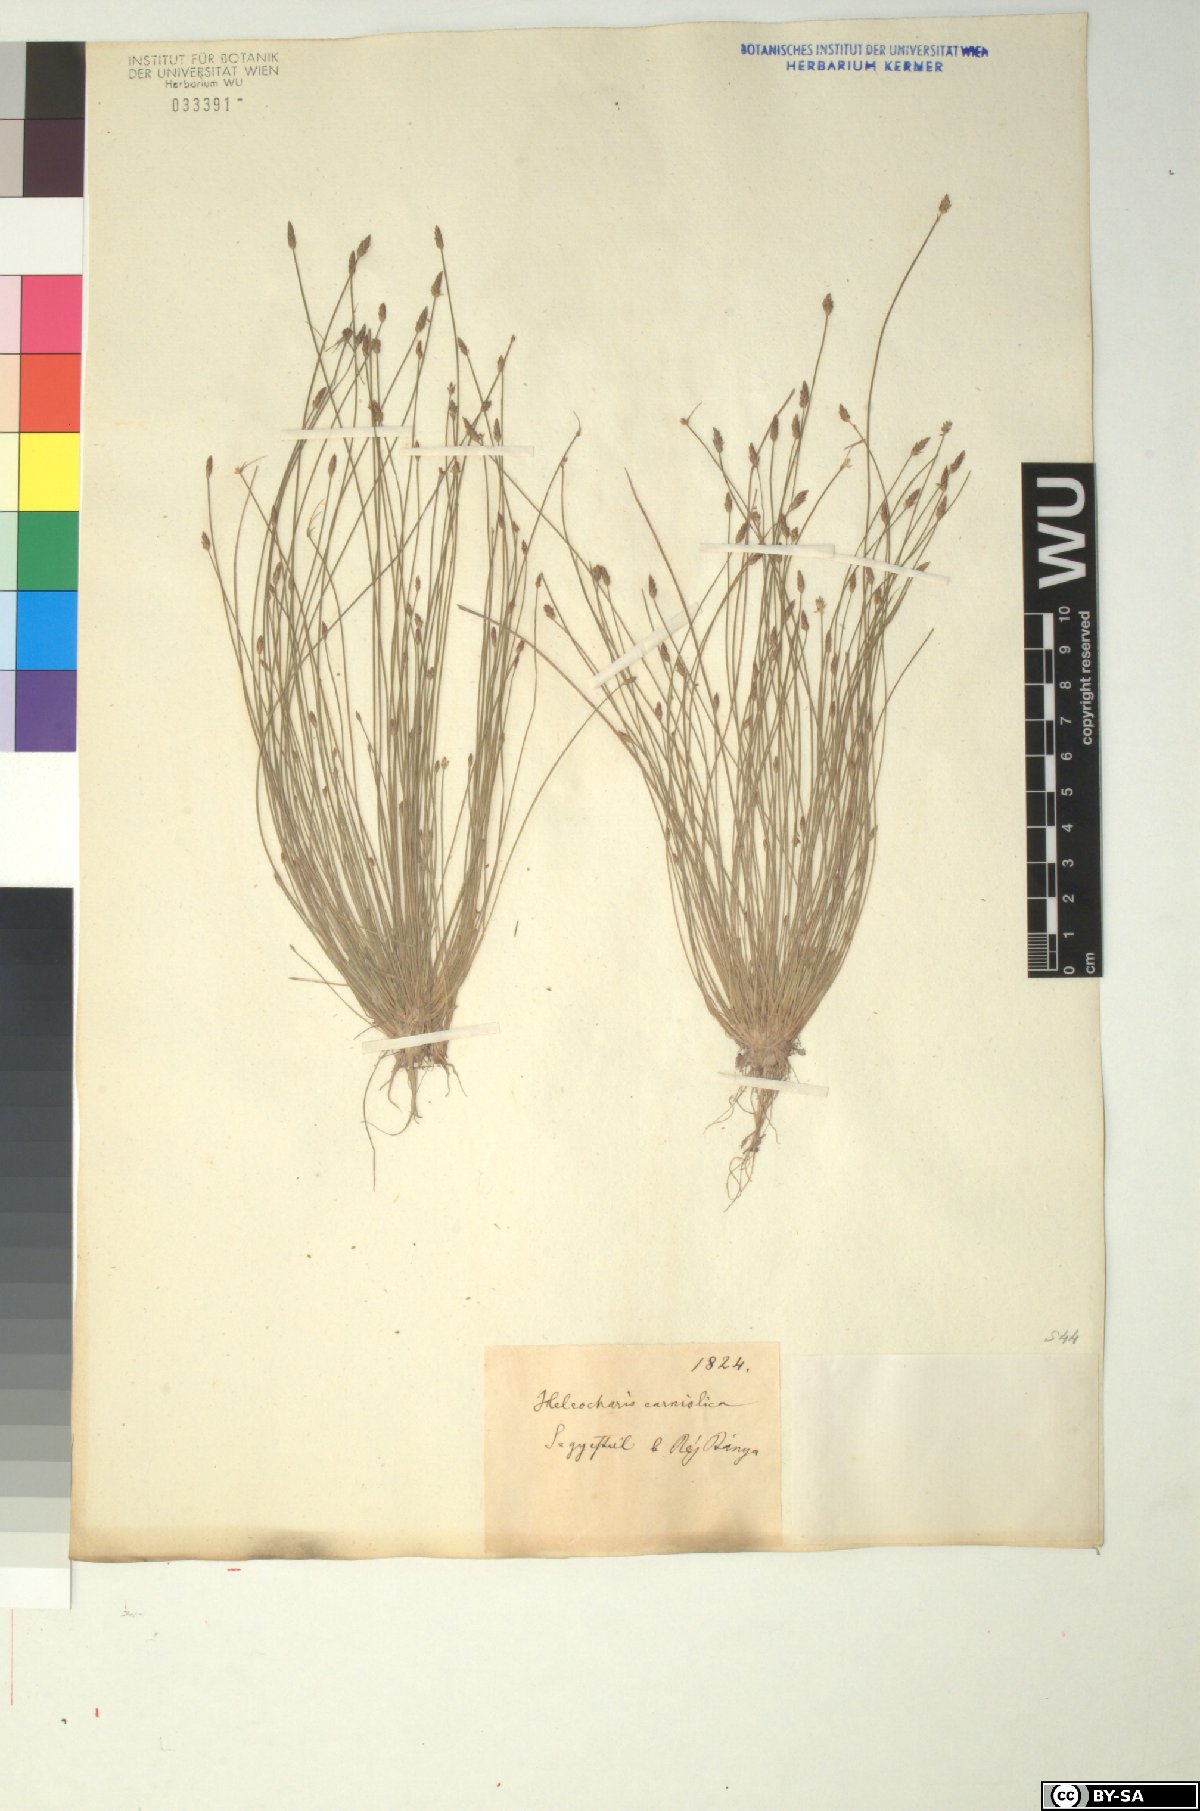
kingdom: Plantae
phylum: Tracheophyta
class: Liliopsida
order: Poales
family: Cyperaceae
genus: Eleocharis
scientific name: Eleocharis carniolica
